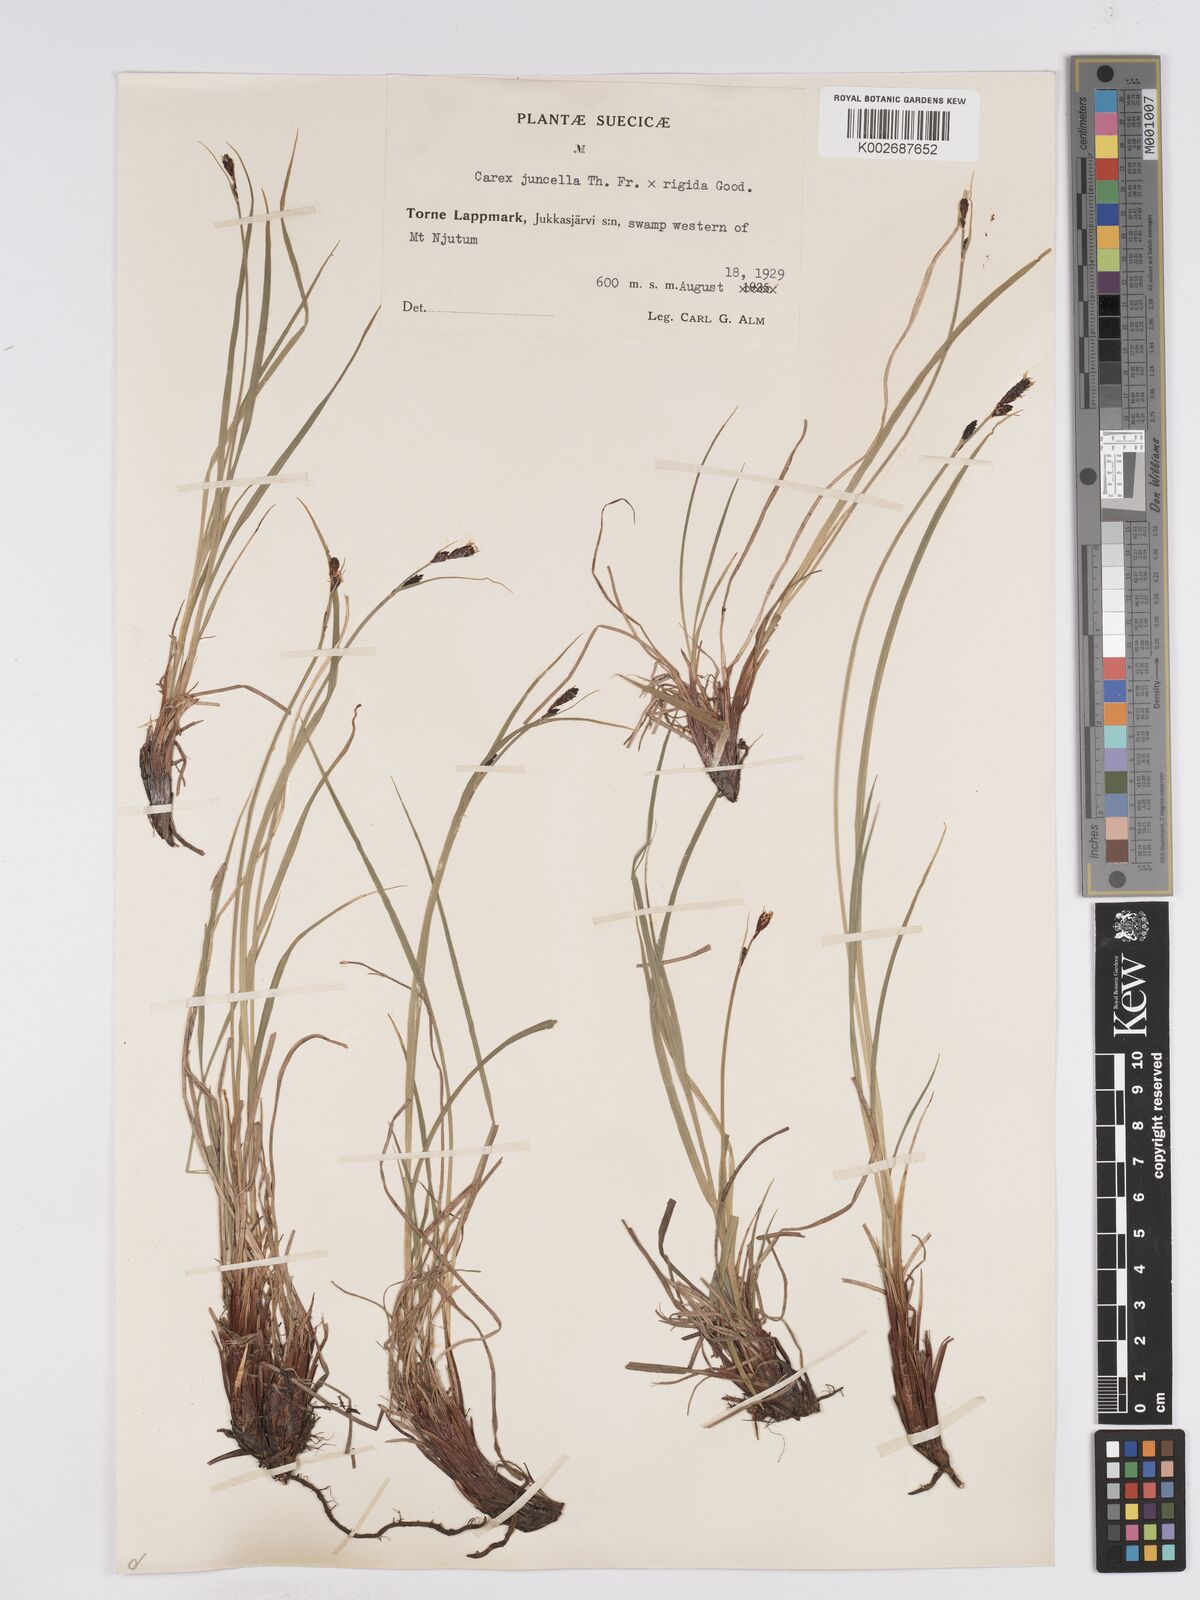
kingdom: Plantae
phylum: Tracheophyta
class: Liliopsida
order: Poales
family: Cyperaceae
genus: Carex
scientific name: Carex
